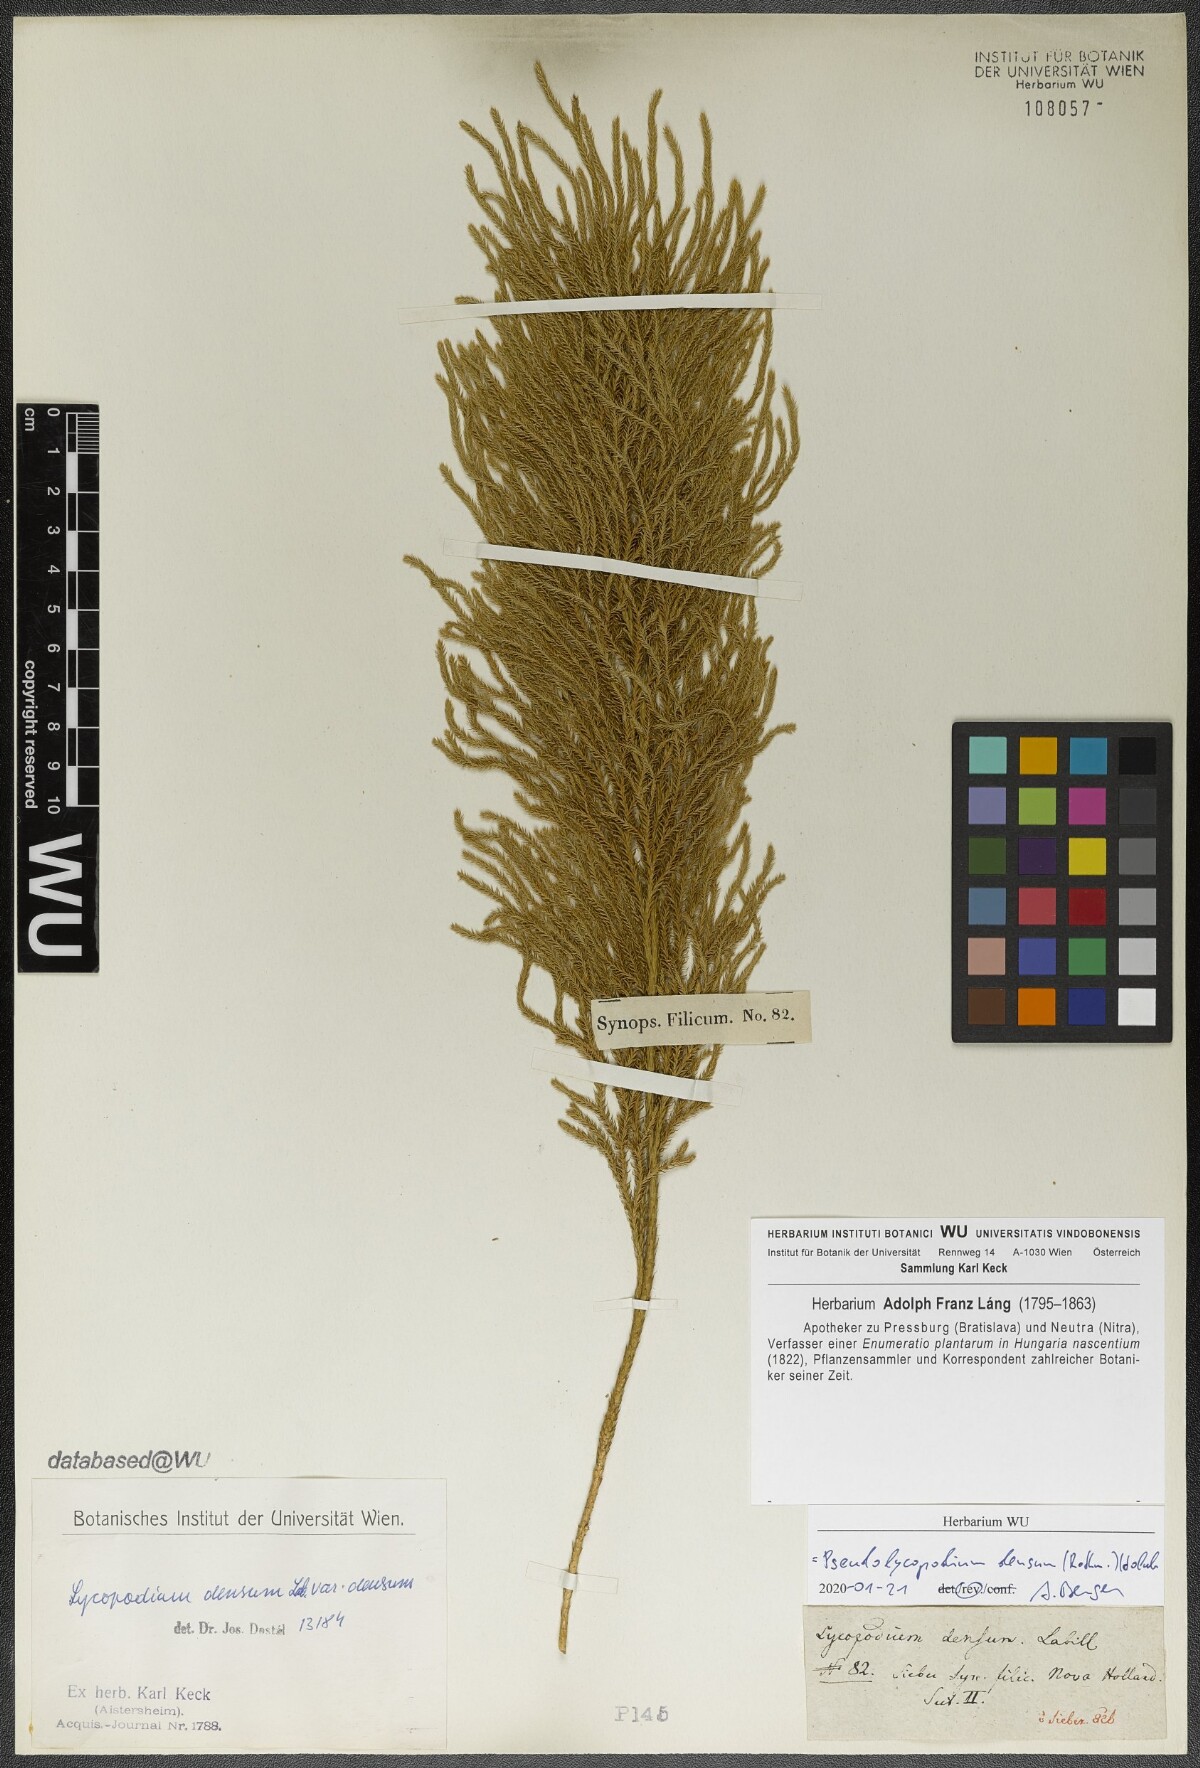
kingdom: Plantae
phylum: Tracheophyta
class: Lycopodiopsida
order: Lycopodiales
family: Lycopodiaceae
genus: Pseudolycopodium
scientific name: Pseudolycopodium densum
